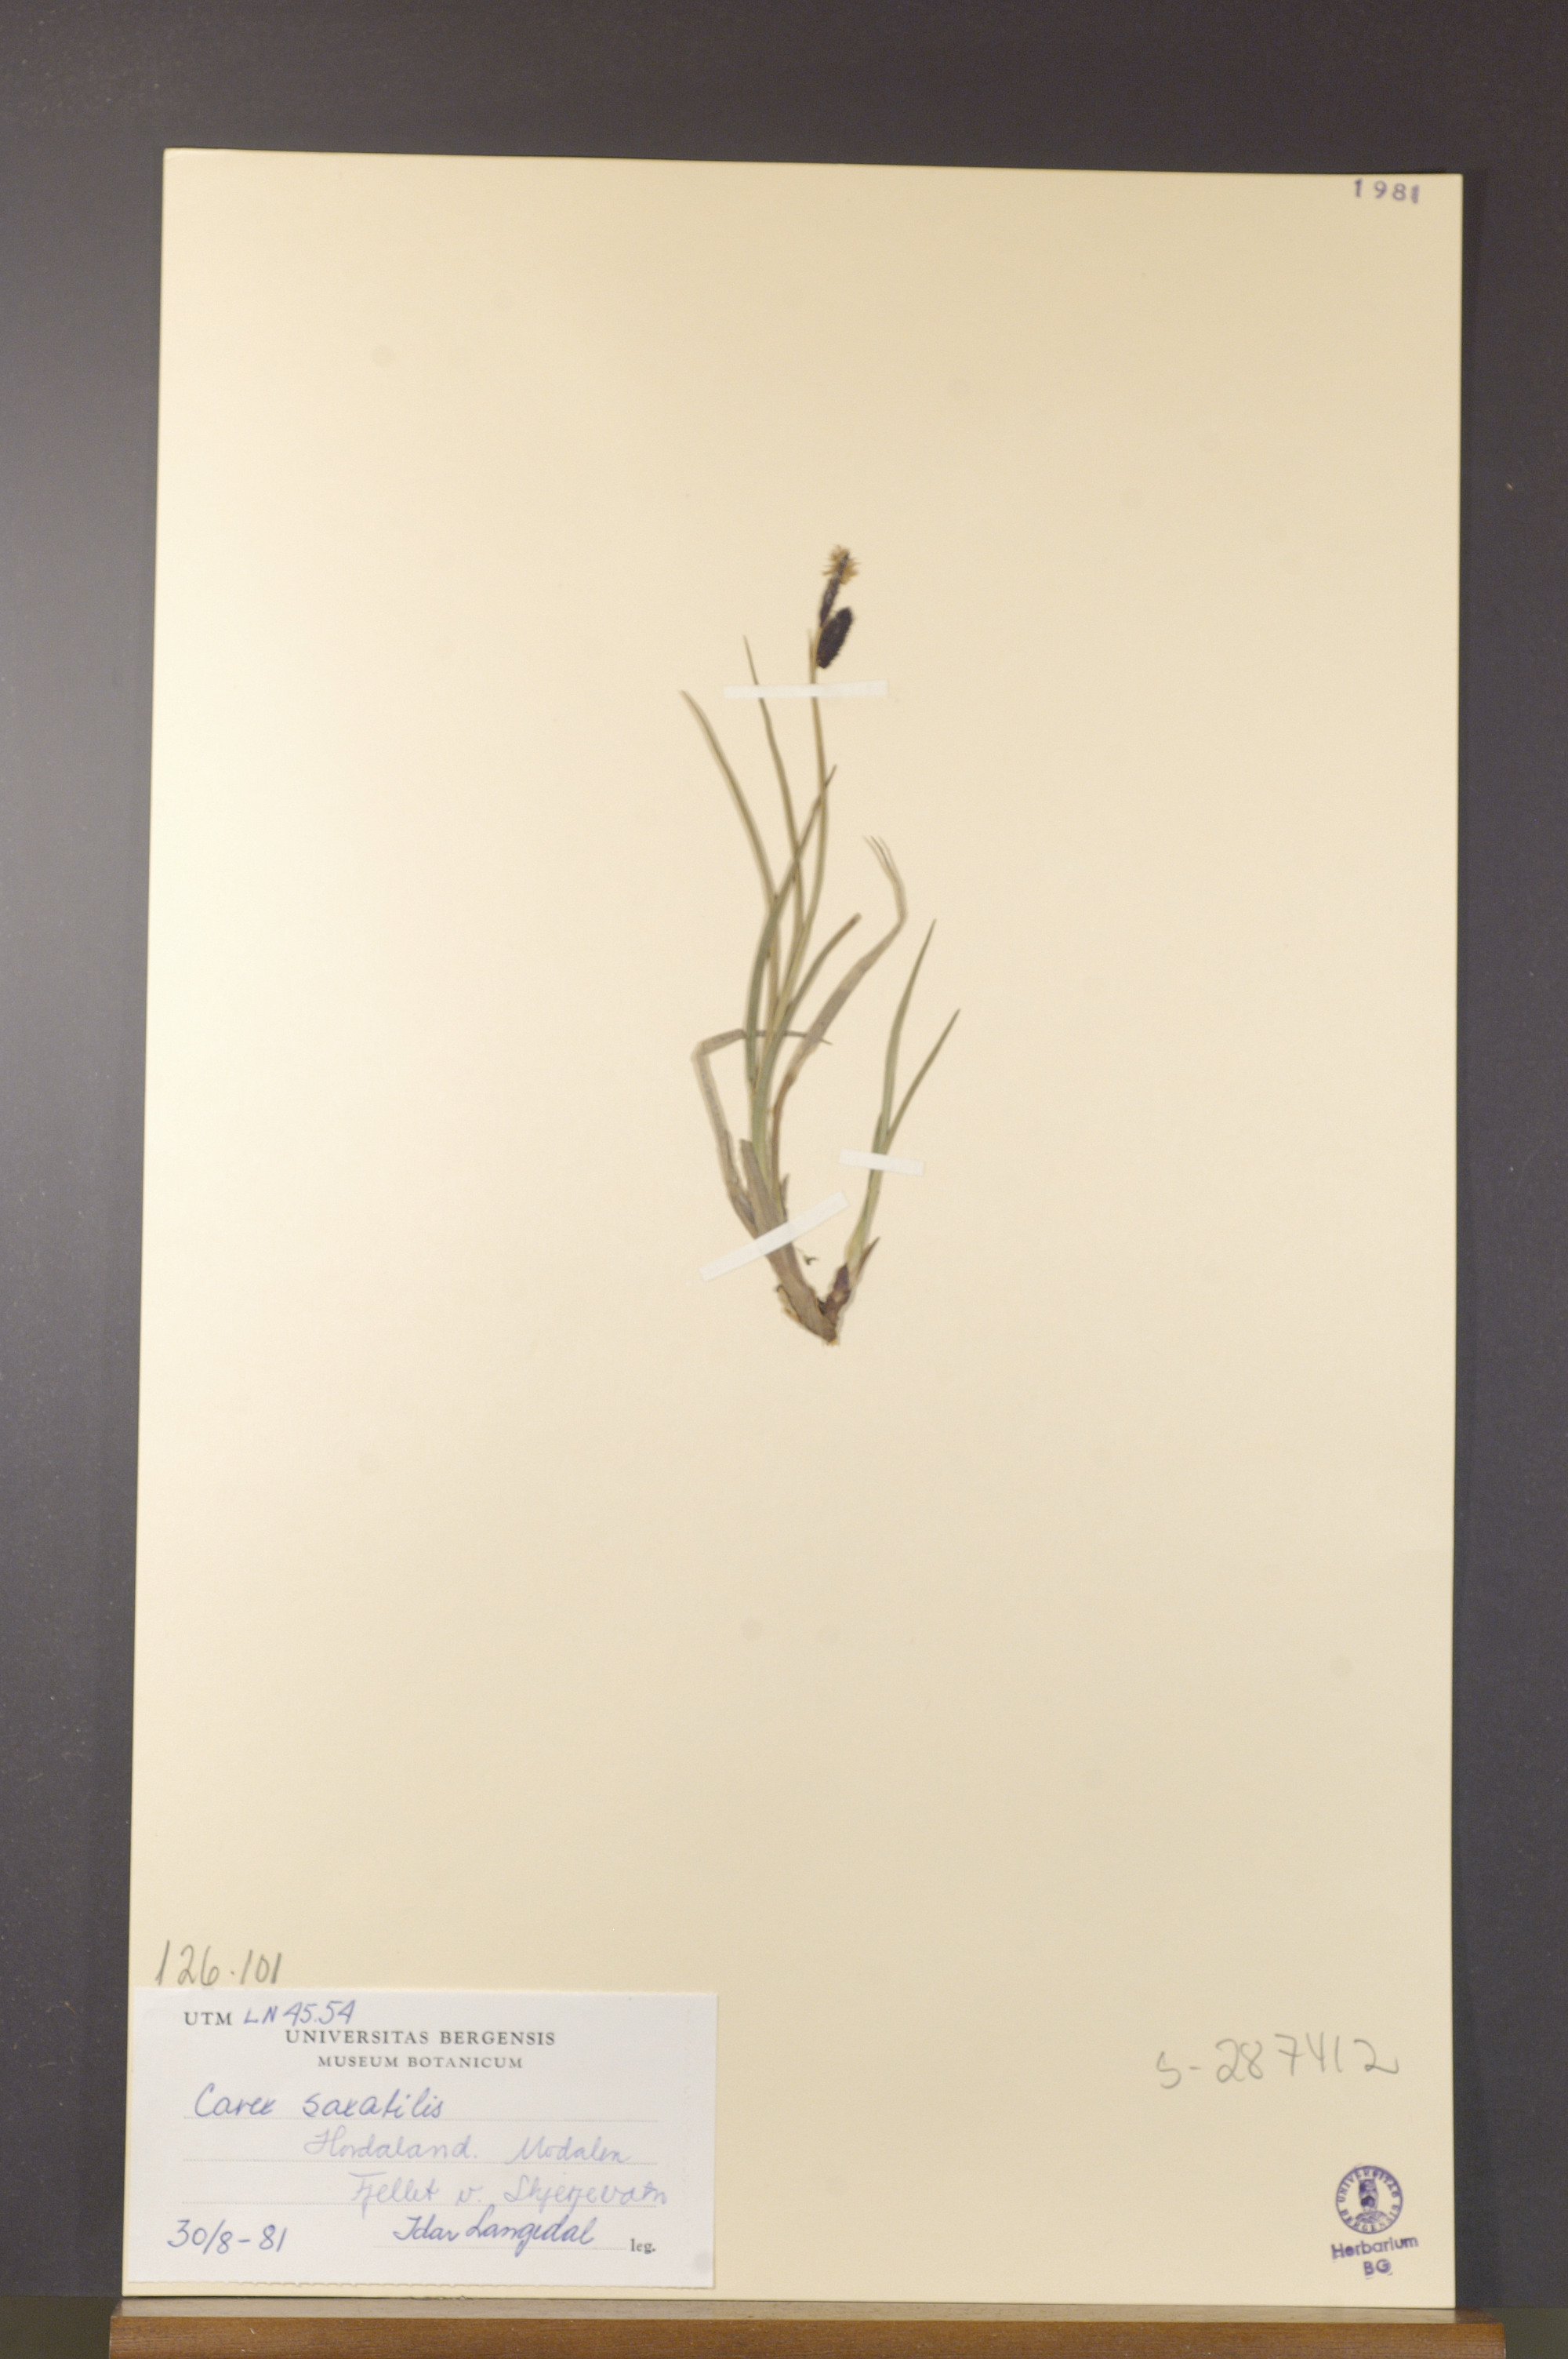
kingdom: Plantae
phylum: Tracheophyta
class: Liliopsida
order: Poales
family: Cyperaceae
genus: Carex
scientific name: Carex saxatilis
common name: Russet sedge
